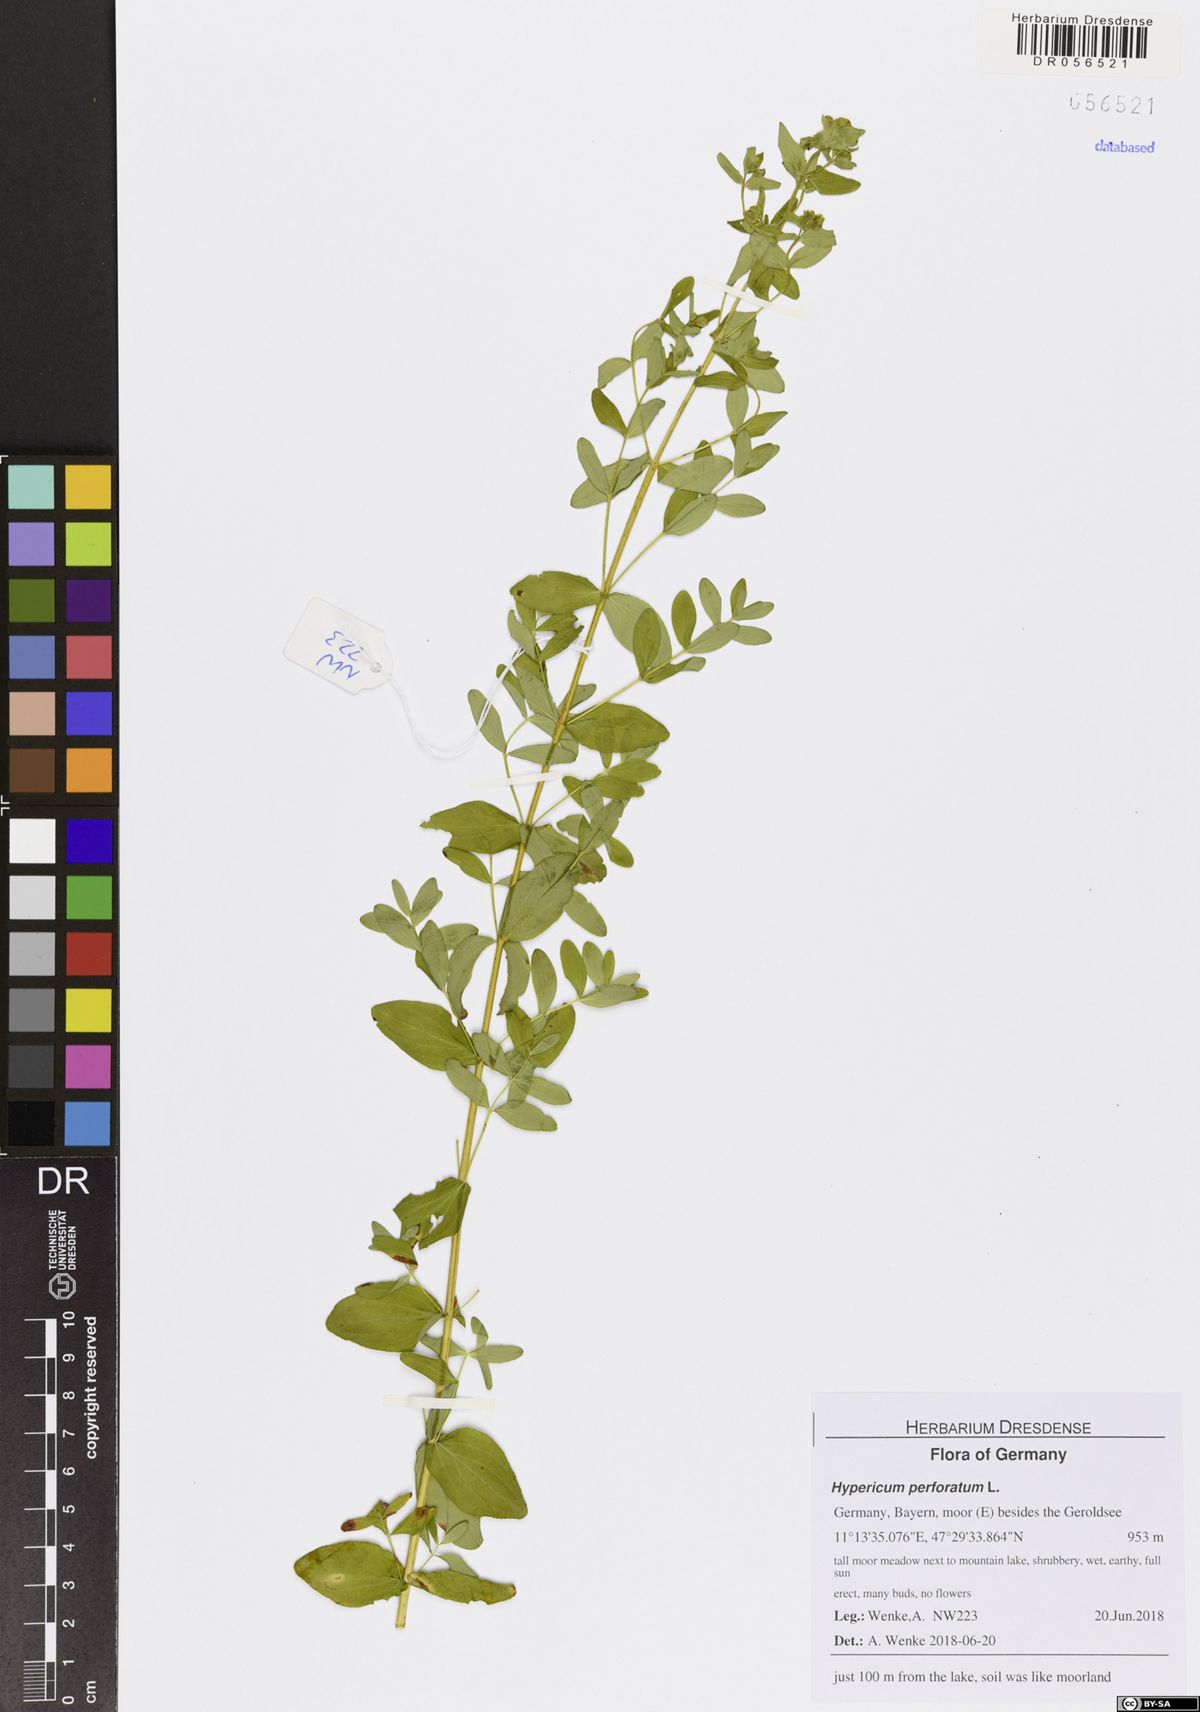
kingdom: Plantae
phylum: Tracheophyta
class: Magnoliopsida
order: Malpighiales
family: Hypericaceae
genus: Hypericum
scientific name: Hypericum perforatum
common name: Common st. johnswort
